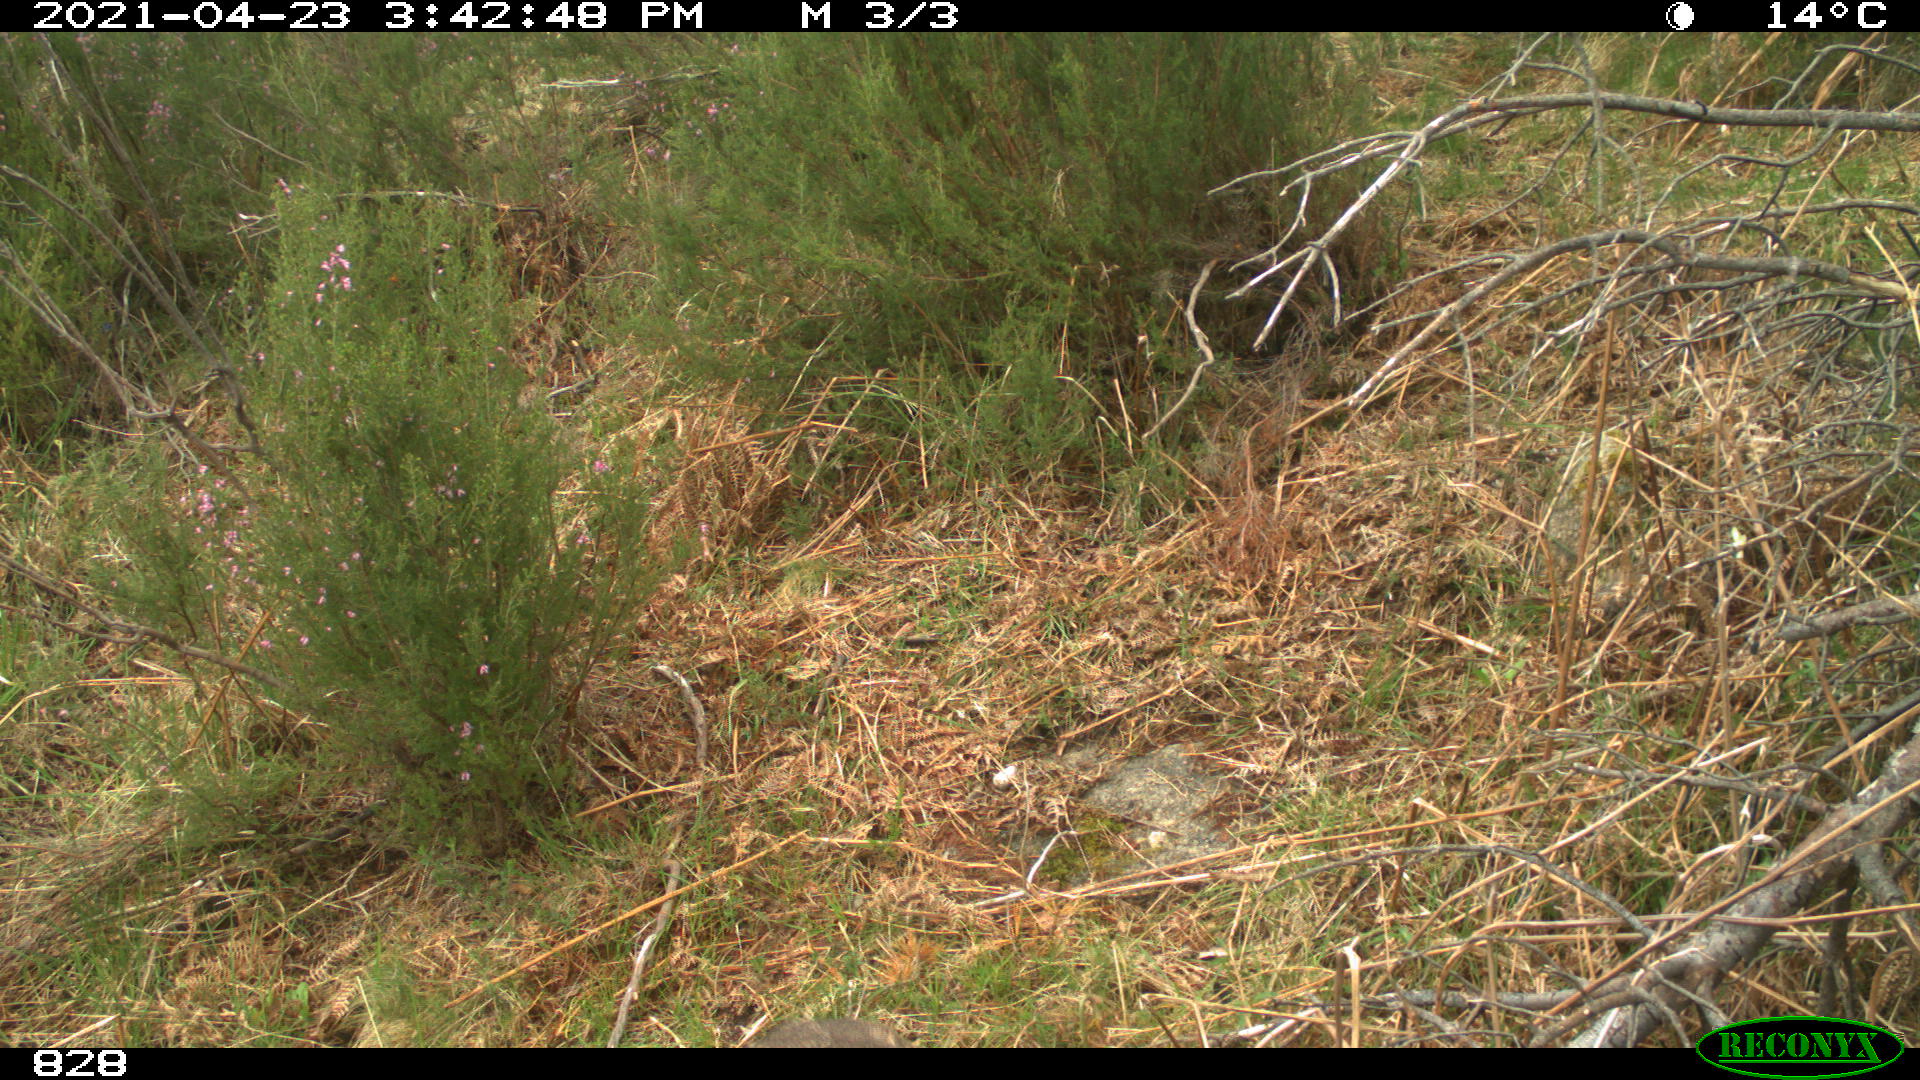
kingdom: Animalia
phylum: Chordata
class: Mammalia
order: Artiodactyla
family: Cervidae
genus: Capreolus
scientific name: Capreolus capreolus
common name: Western roe deer
